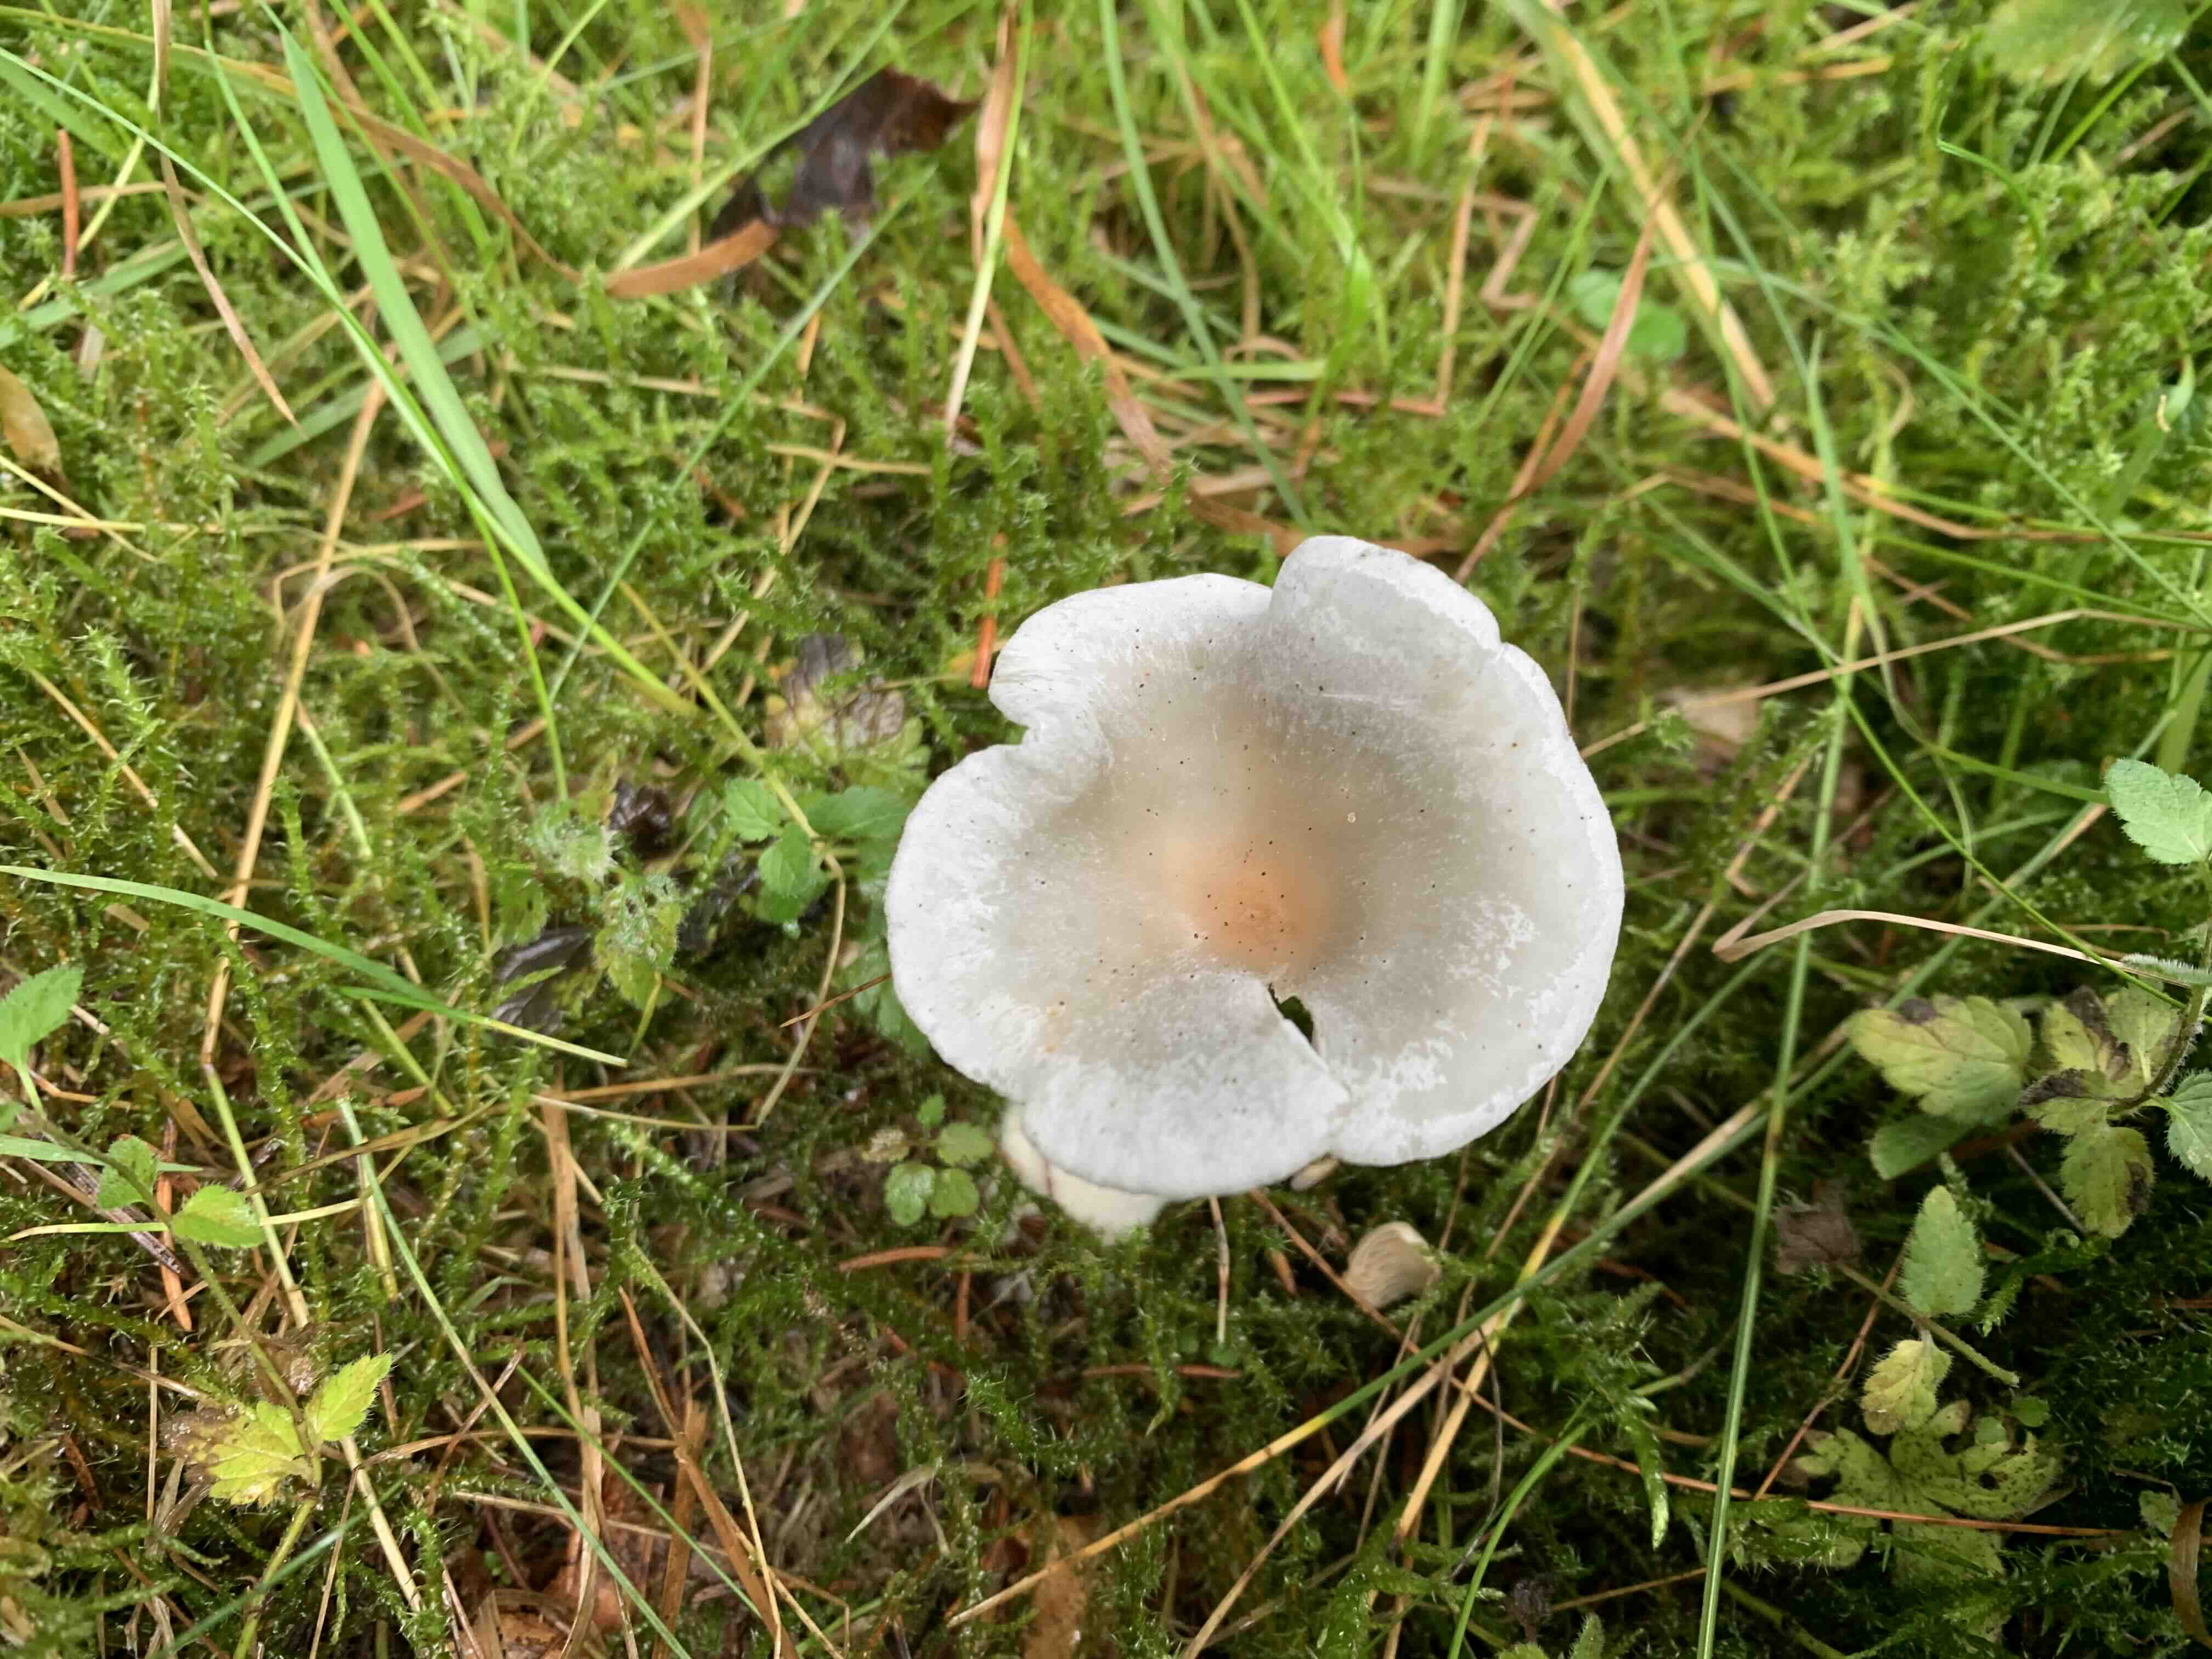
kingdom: Fungi
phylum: Basidiomycota
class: Agaricomycetes
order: Agaricales
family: Tricholomataceae
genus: Clitocybe
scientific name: Clitocybe odora
